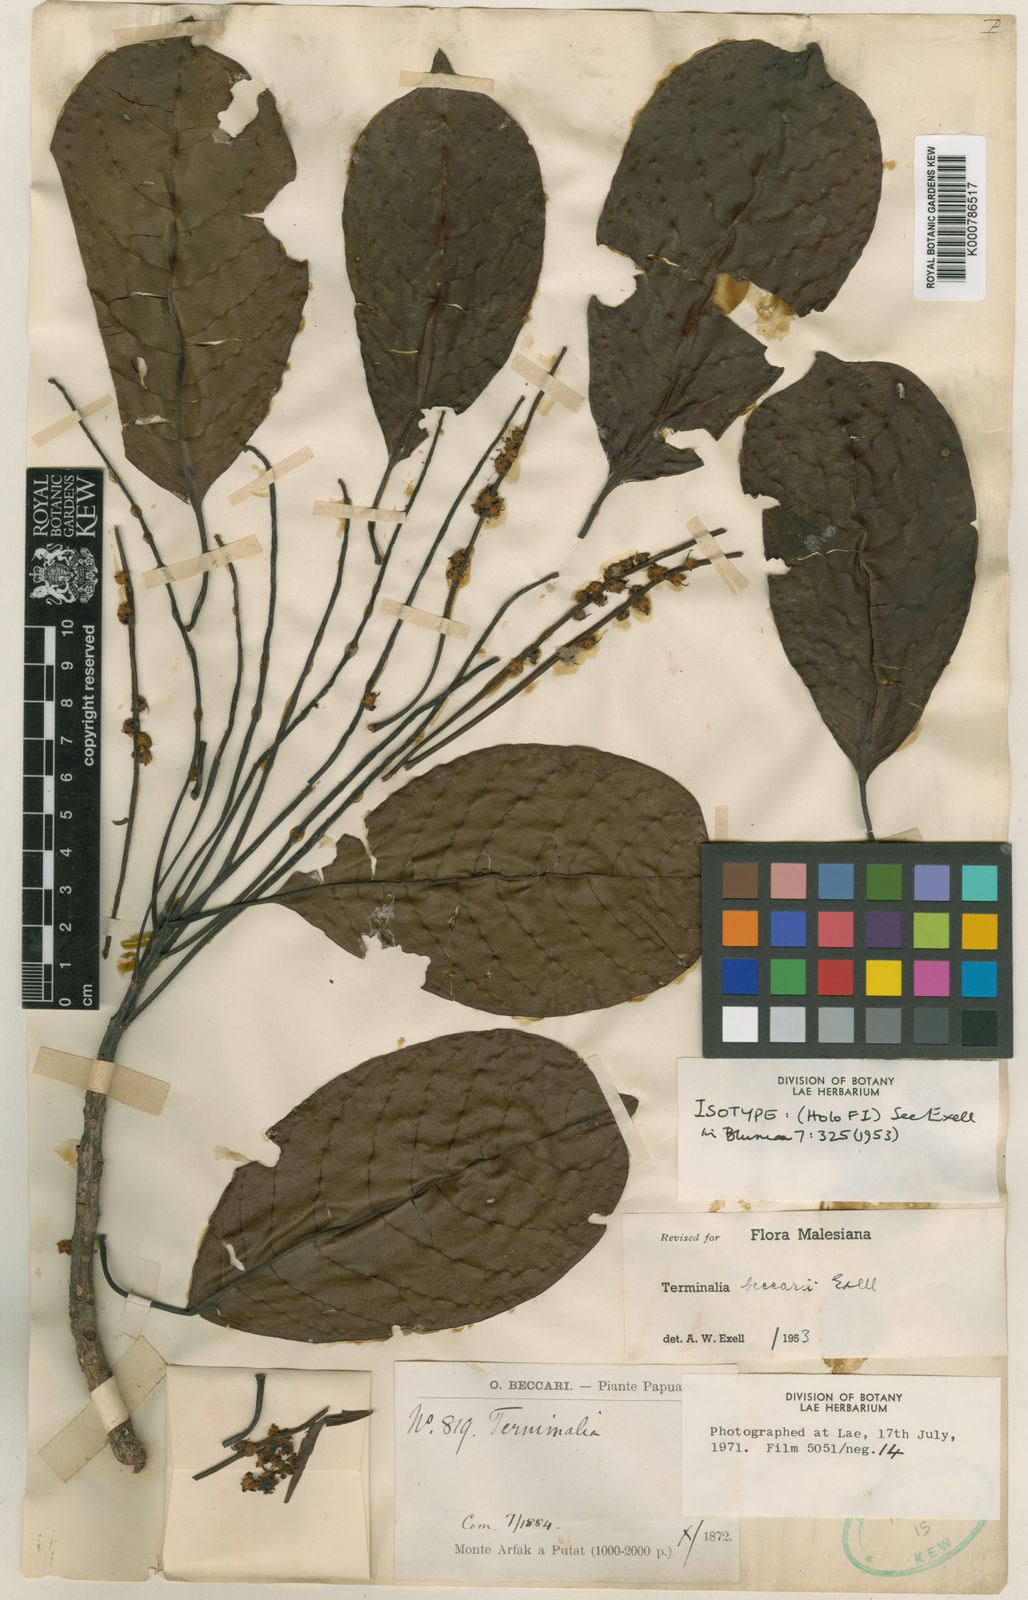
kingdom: Plantae
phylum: Tracheophyta
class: Magnoliopsida
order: Myrtales
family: Combretaceae
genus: Terminalia
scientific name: Terminalia canaliculata
